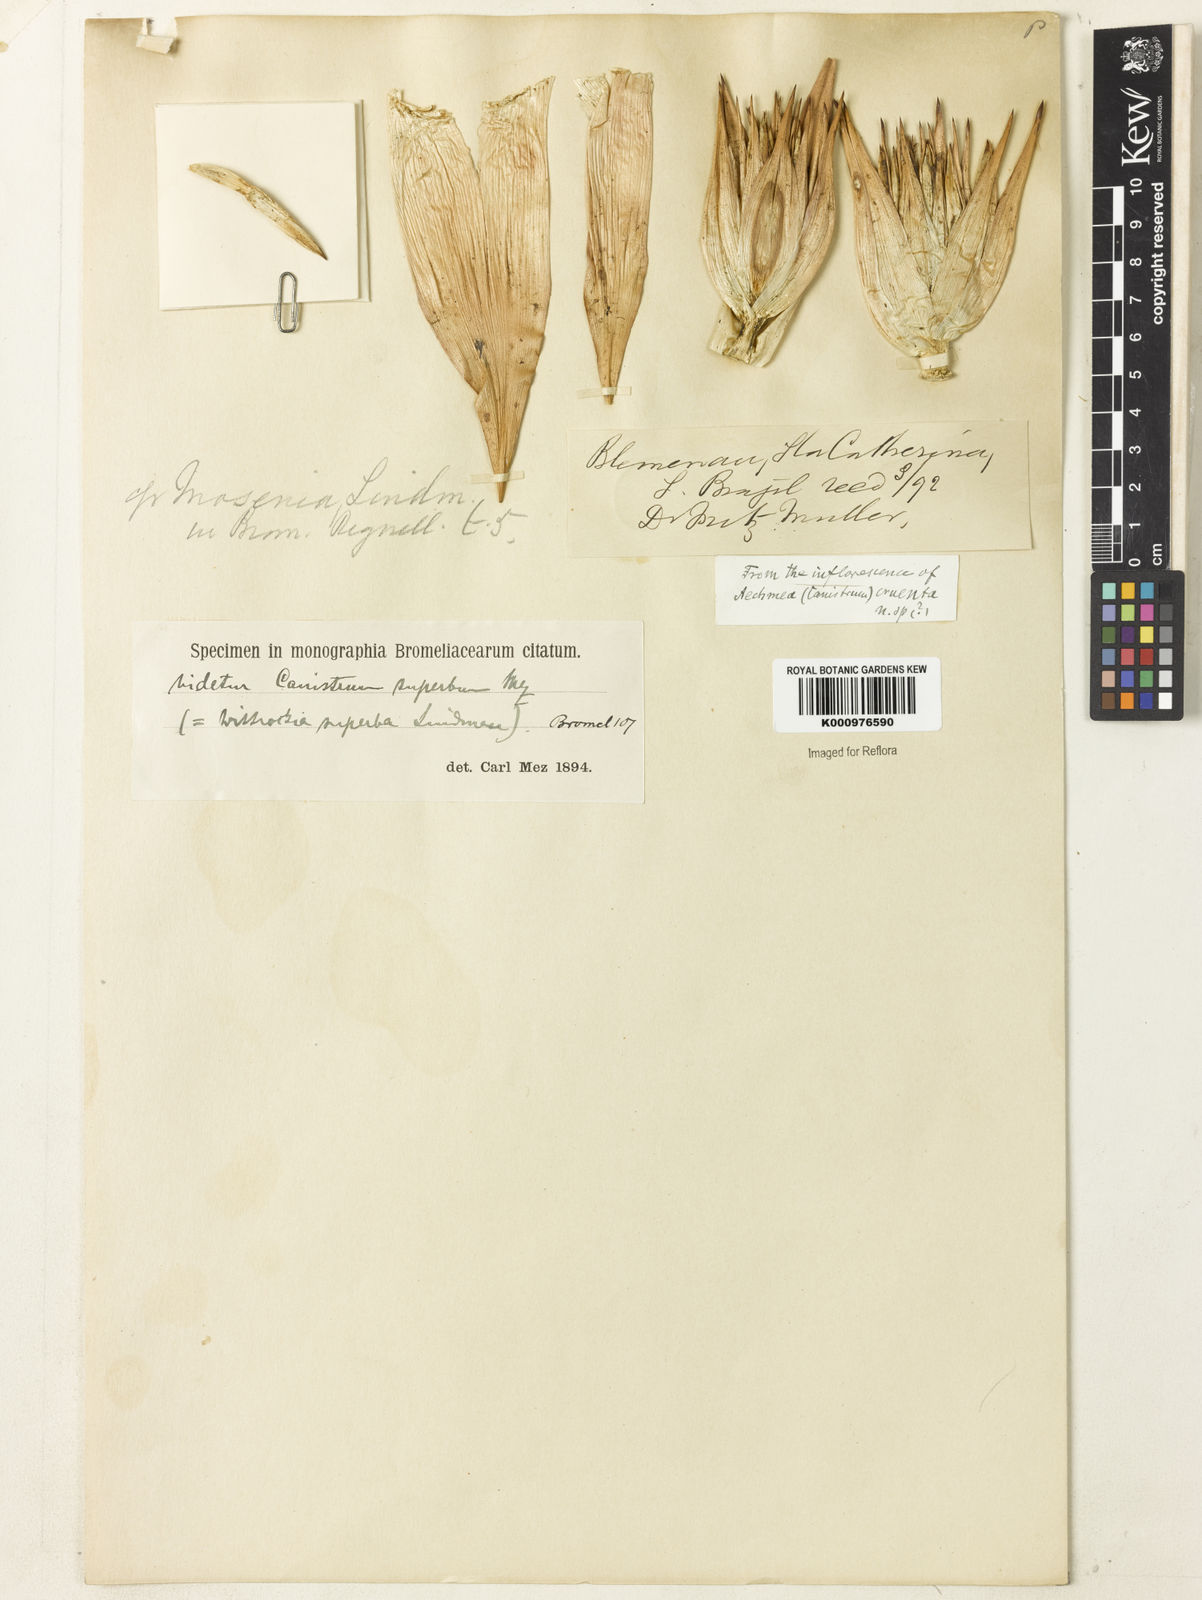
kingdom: Plantae
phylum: Tracheophyta
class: Liliopsida
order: Poales
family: Bromeliaceae
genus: Wittrockia
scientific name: Wittrockia superba
